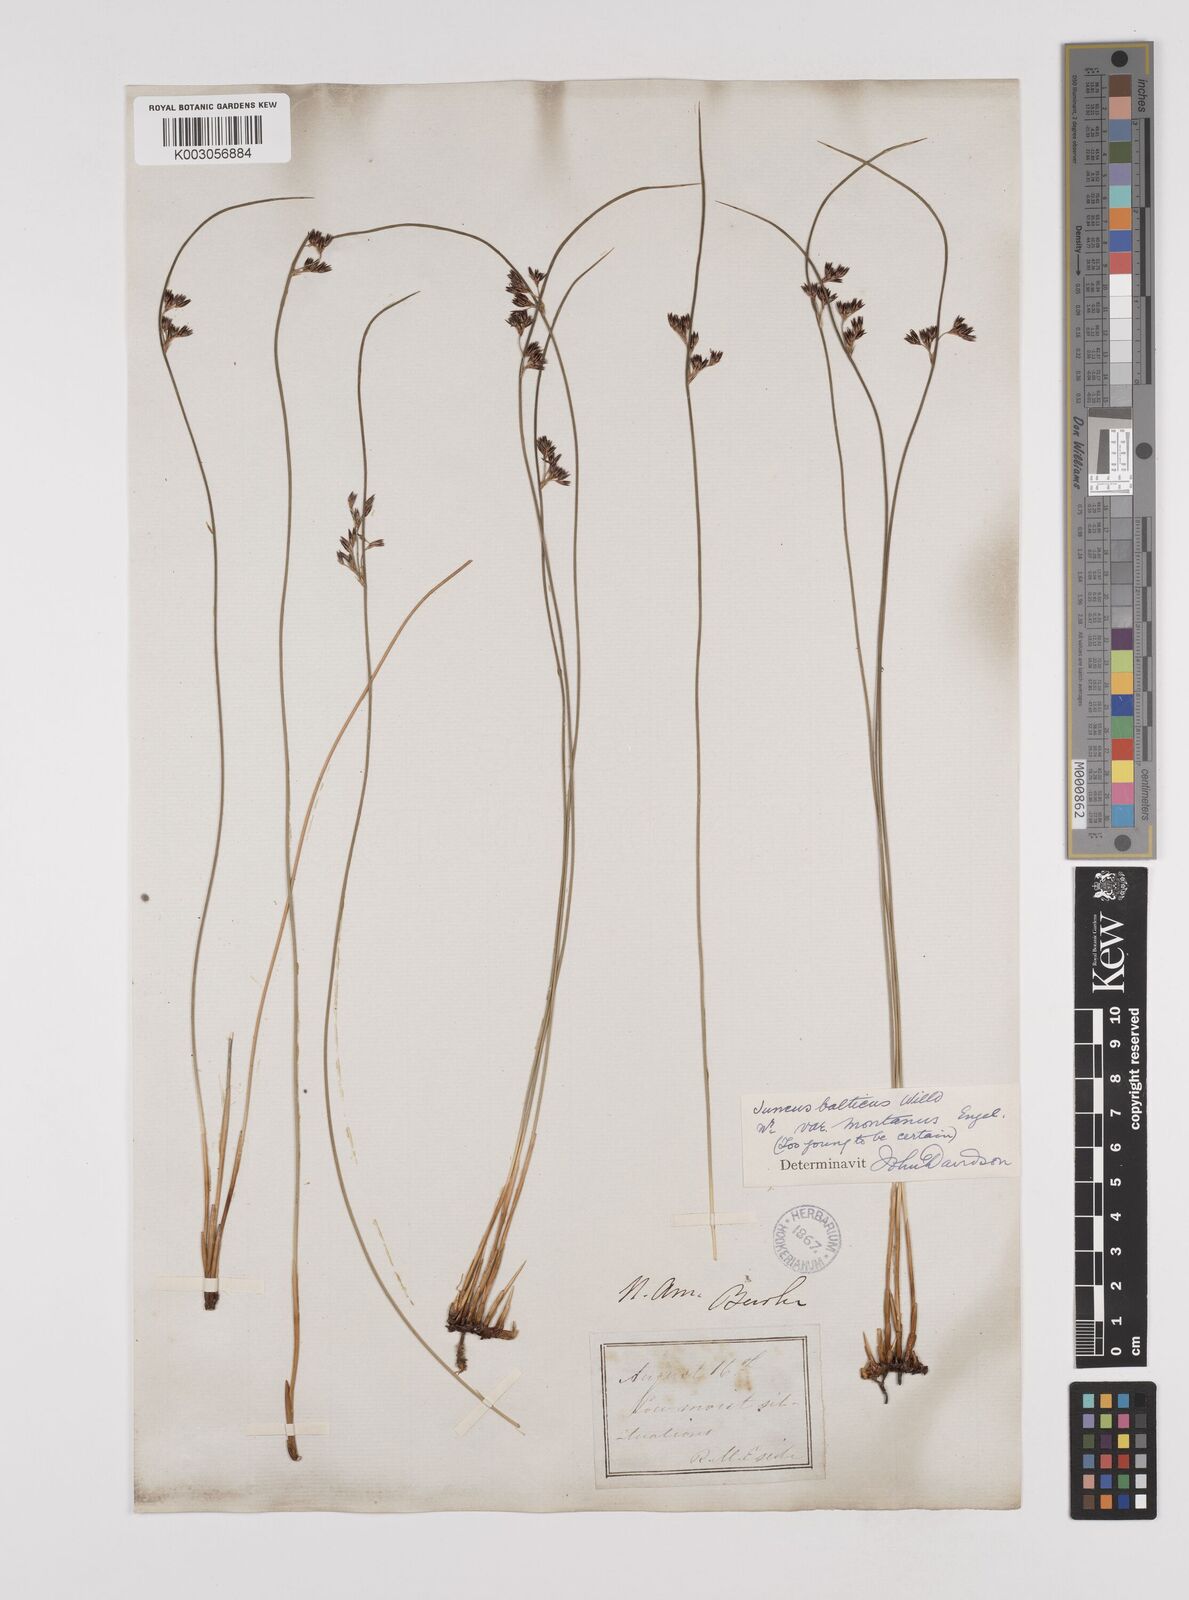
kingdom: Plantae
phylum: Tracheophyta
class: Liliopsida
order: Poales
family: Juncaceae
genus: Juncus
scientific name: Juncus
